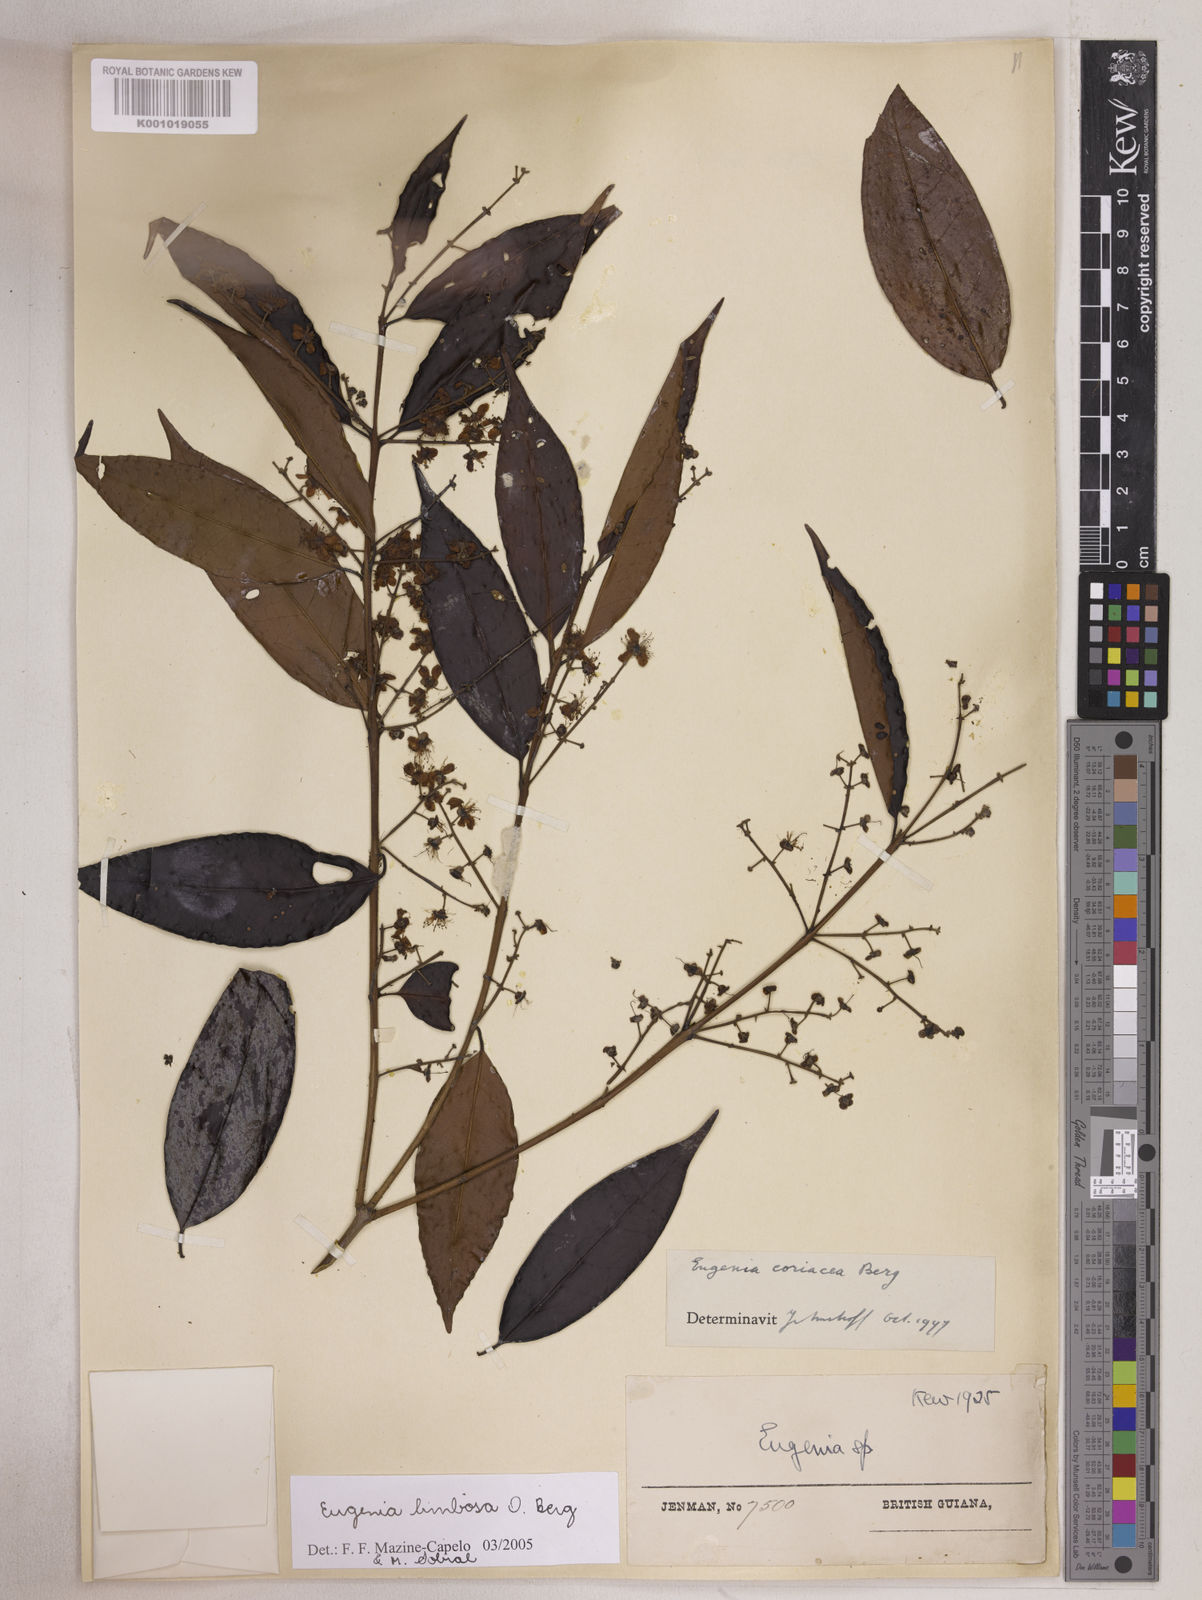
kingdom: Plantae
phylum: Tracheophyta
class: Magnoliopsida
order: Myrtales
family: Myrtaceae
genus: Eugenia
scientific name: Eugenia limbosa
